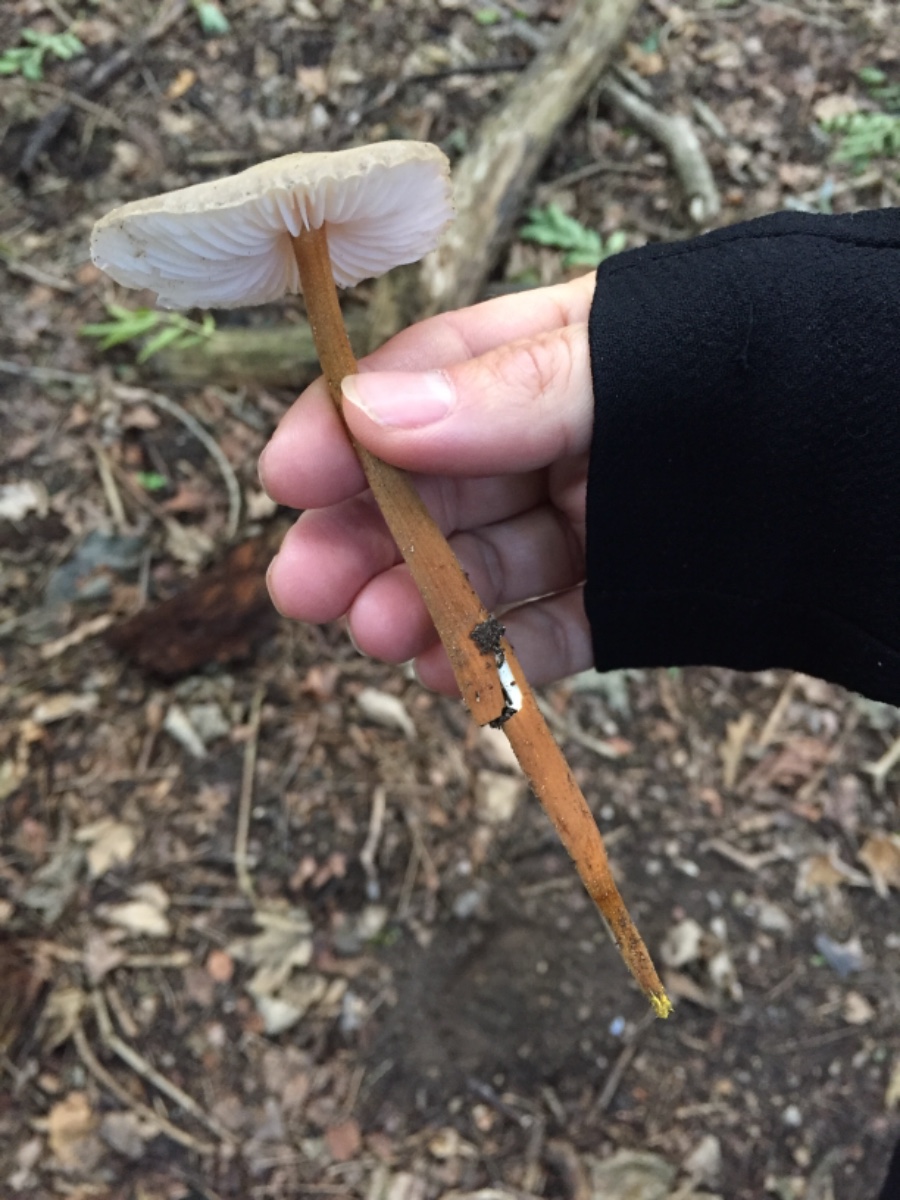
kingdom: Fungi
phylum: Basidiomycota
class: Agaricomycetes
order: Agaricales
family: Physalacriaceae
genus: Xerula
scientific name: Xerula pudens
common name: filtet pælerodshat
